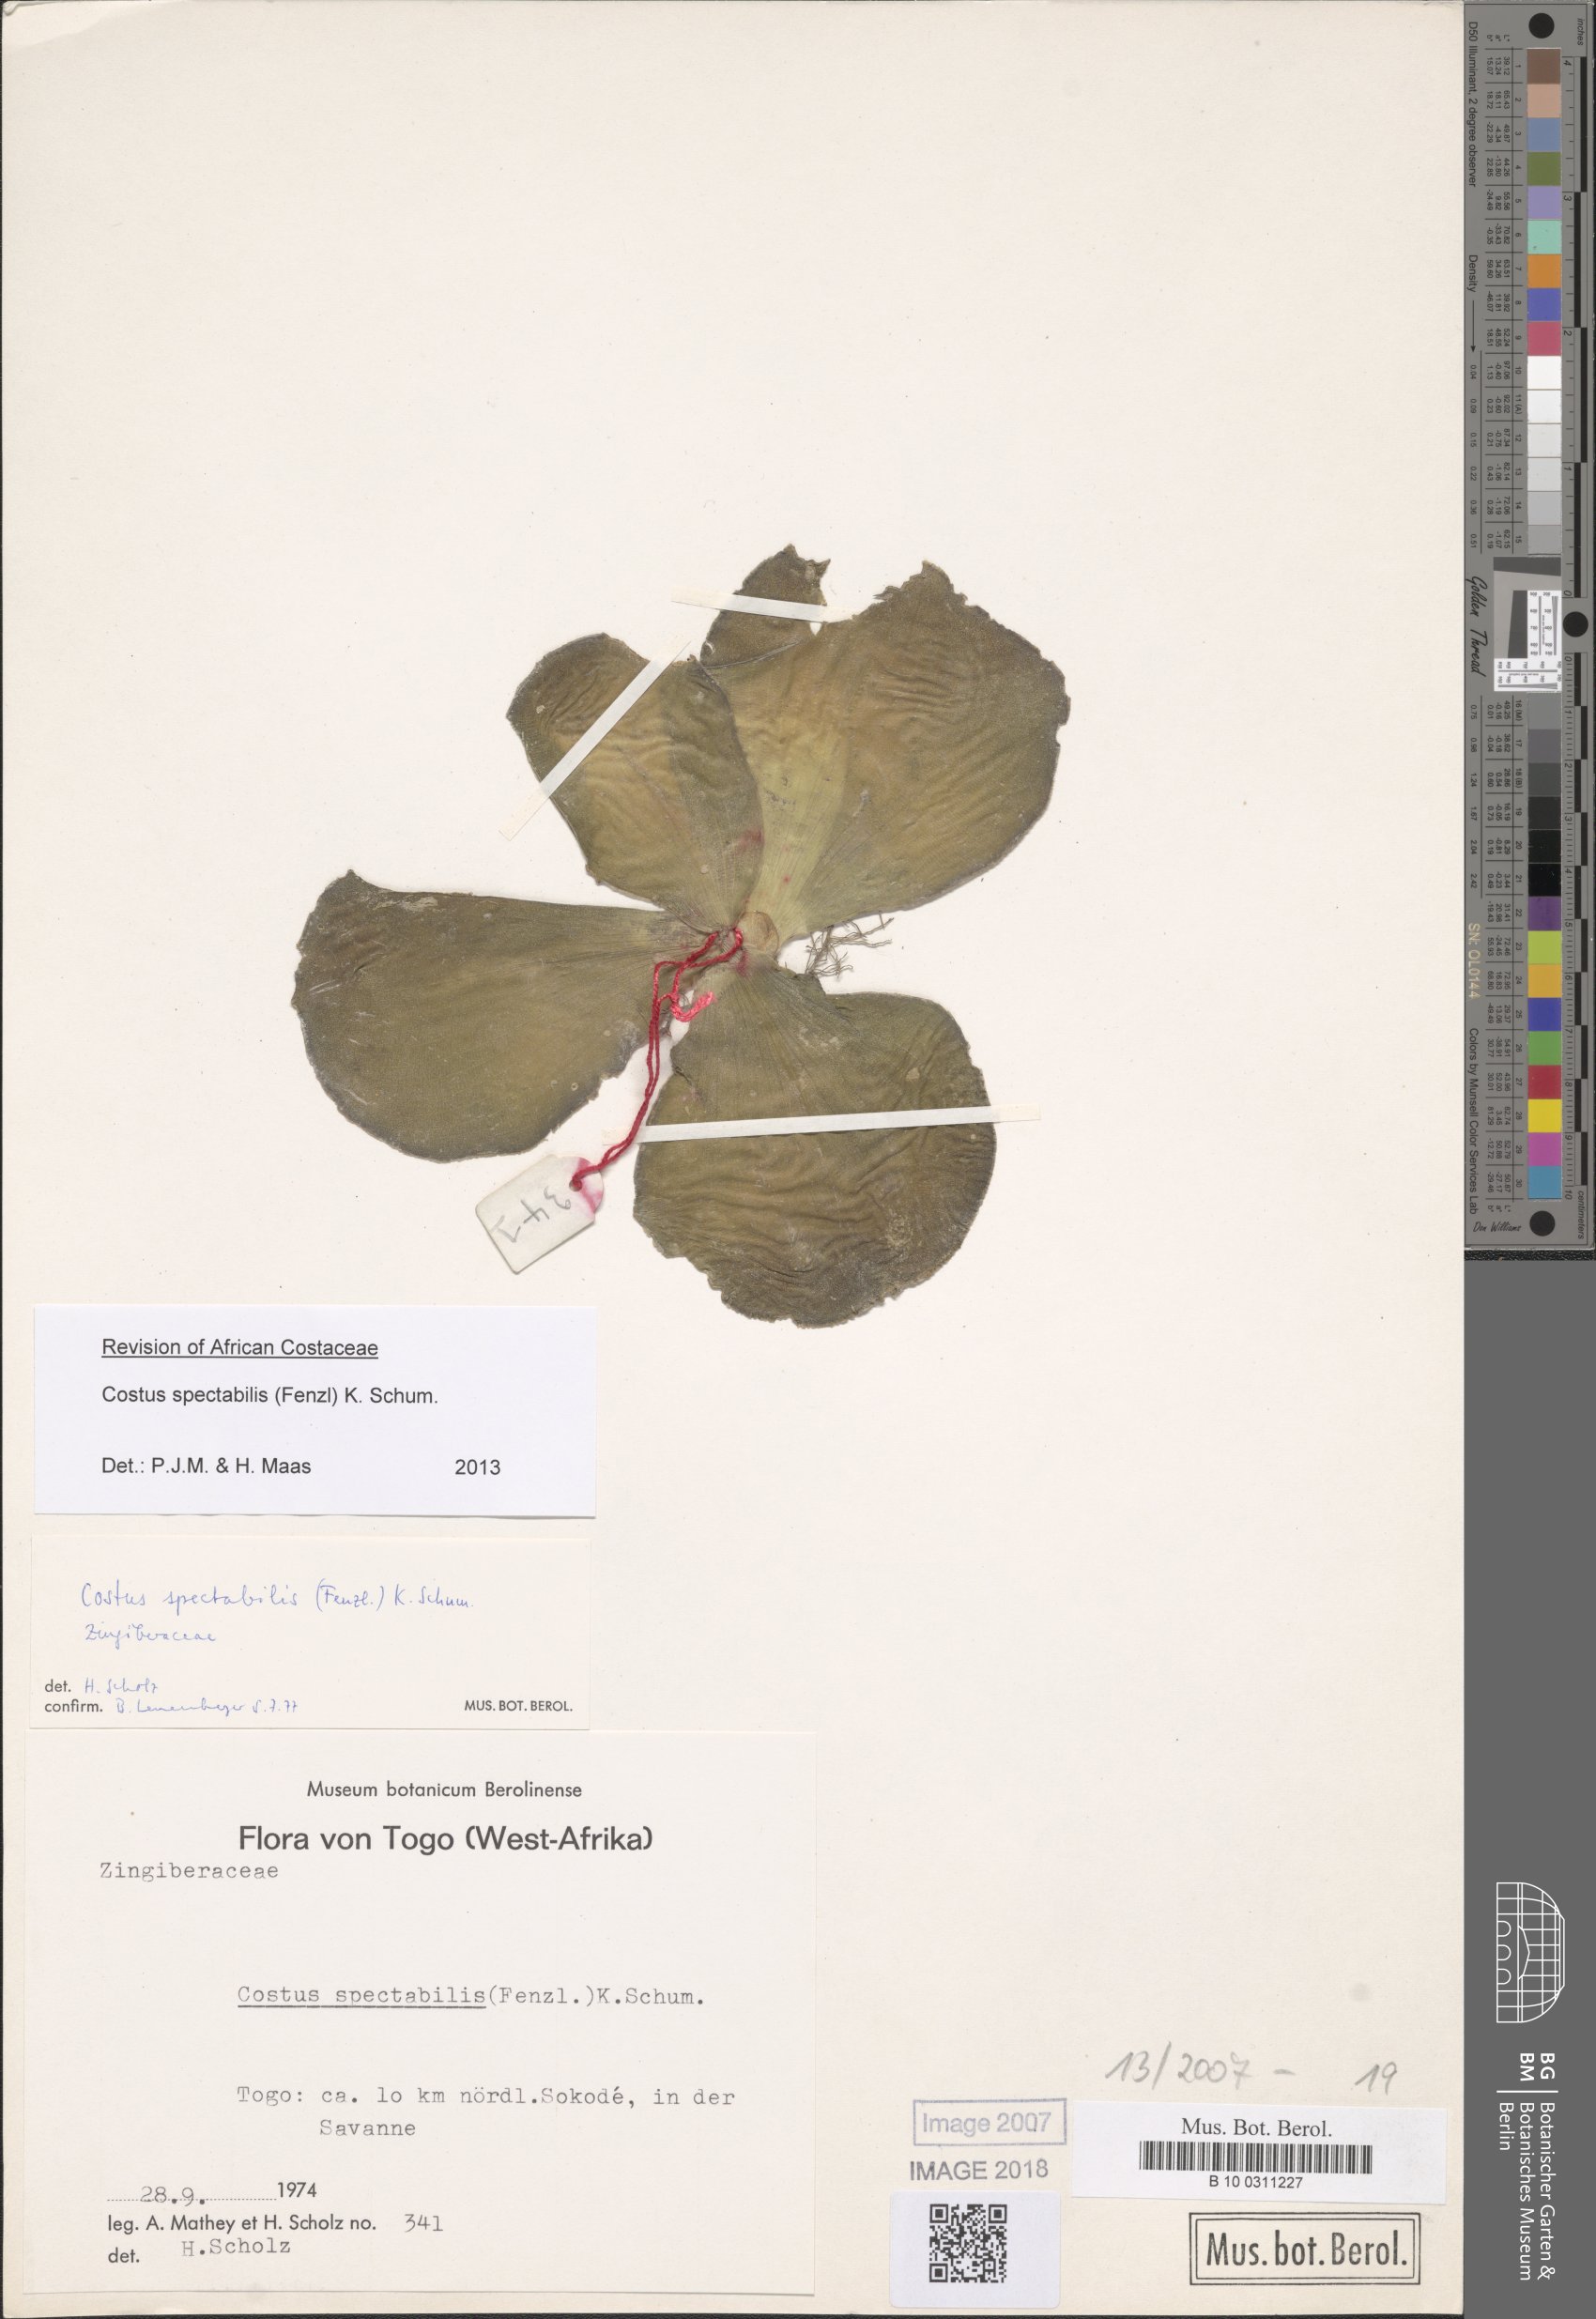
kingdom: Plantae
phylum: Tracheophyta
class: Liliopsida
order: Zingiberales
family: Costaceae
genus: Costus
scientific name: Costus spectabilis
